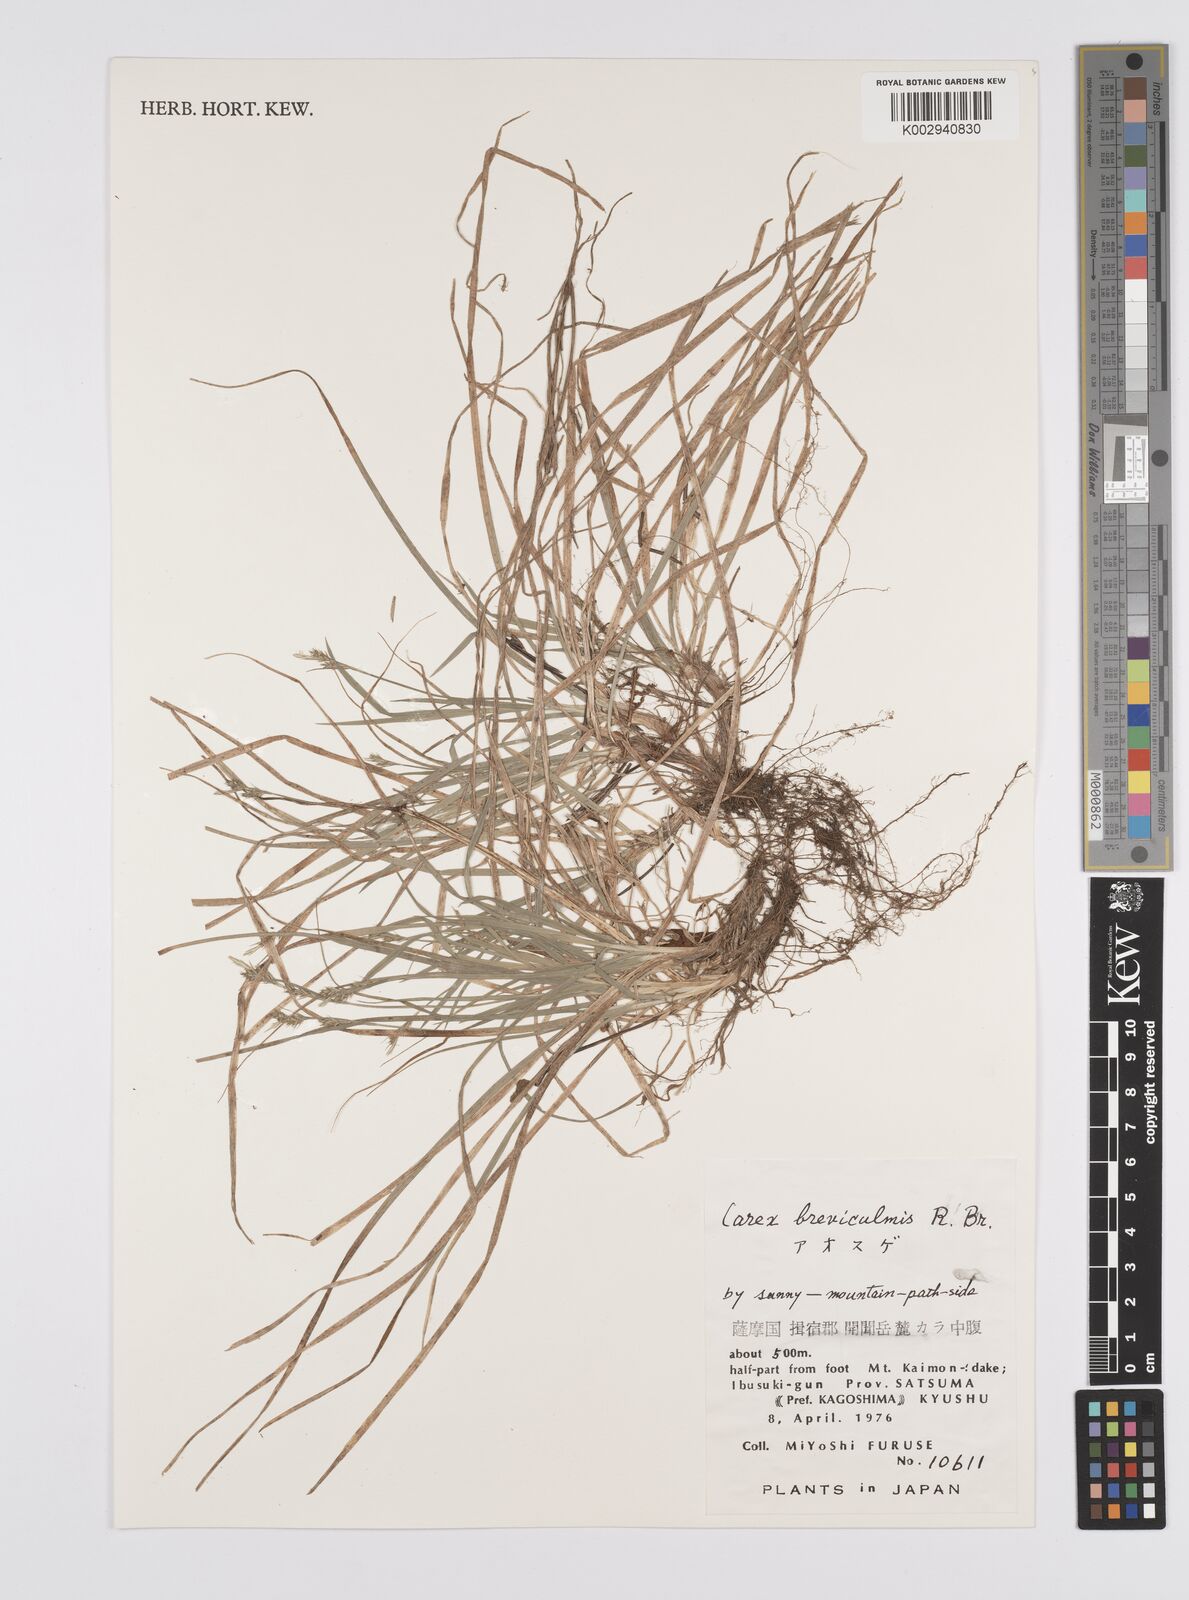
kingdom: Plantae
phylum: Tracheophyta
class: Liliopsida
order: Poales
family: Cyperaceae
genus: Carex
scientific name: Carex breviculmis
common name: Asian shortstem sedge
